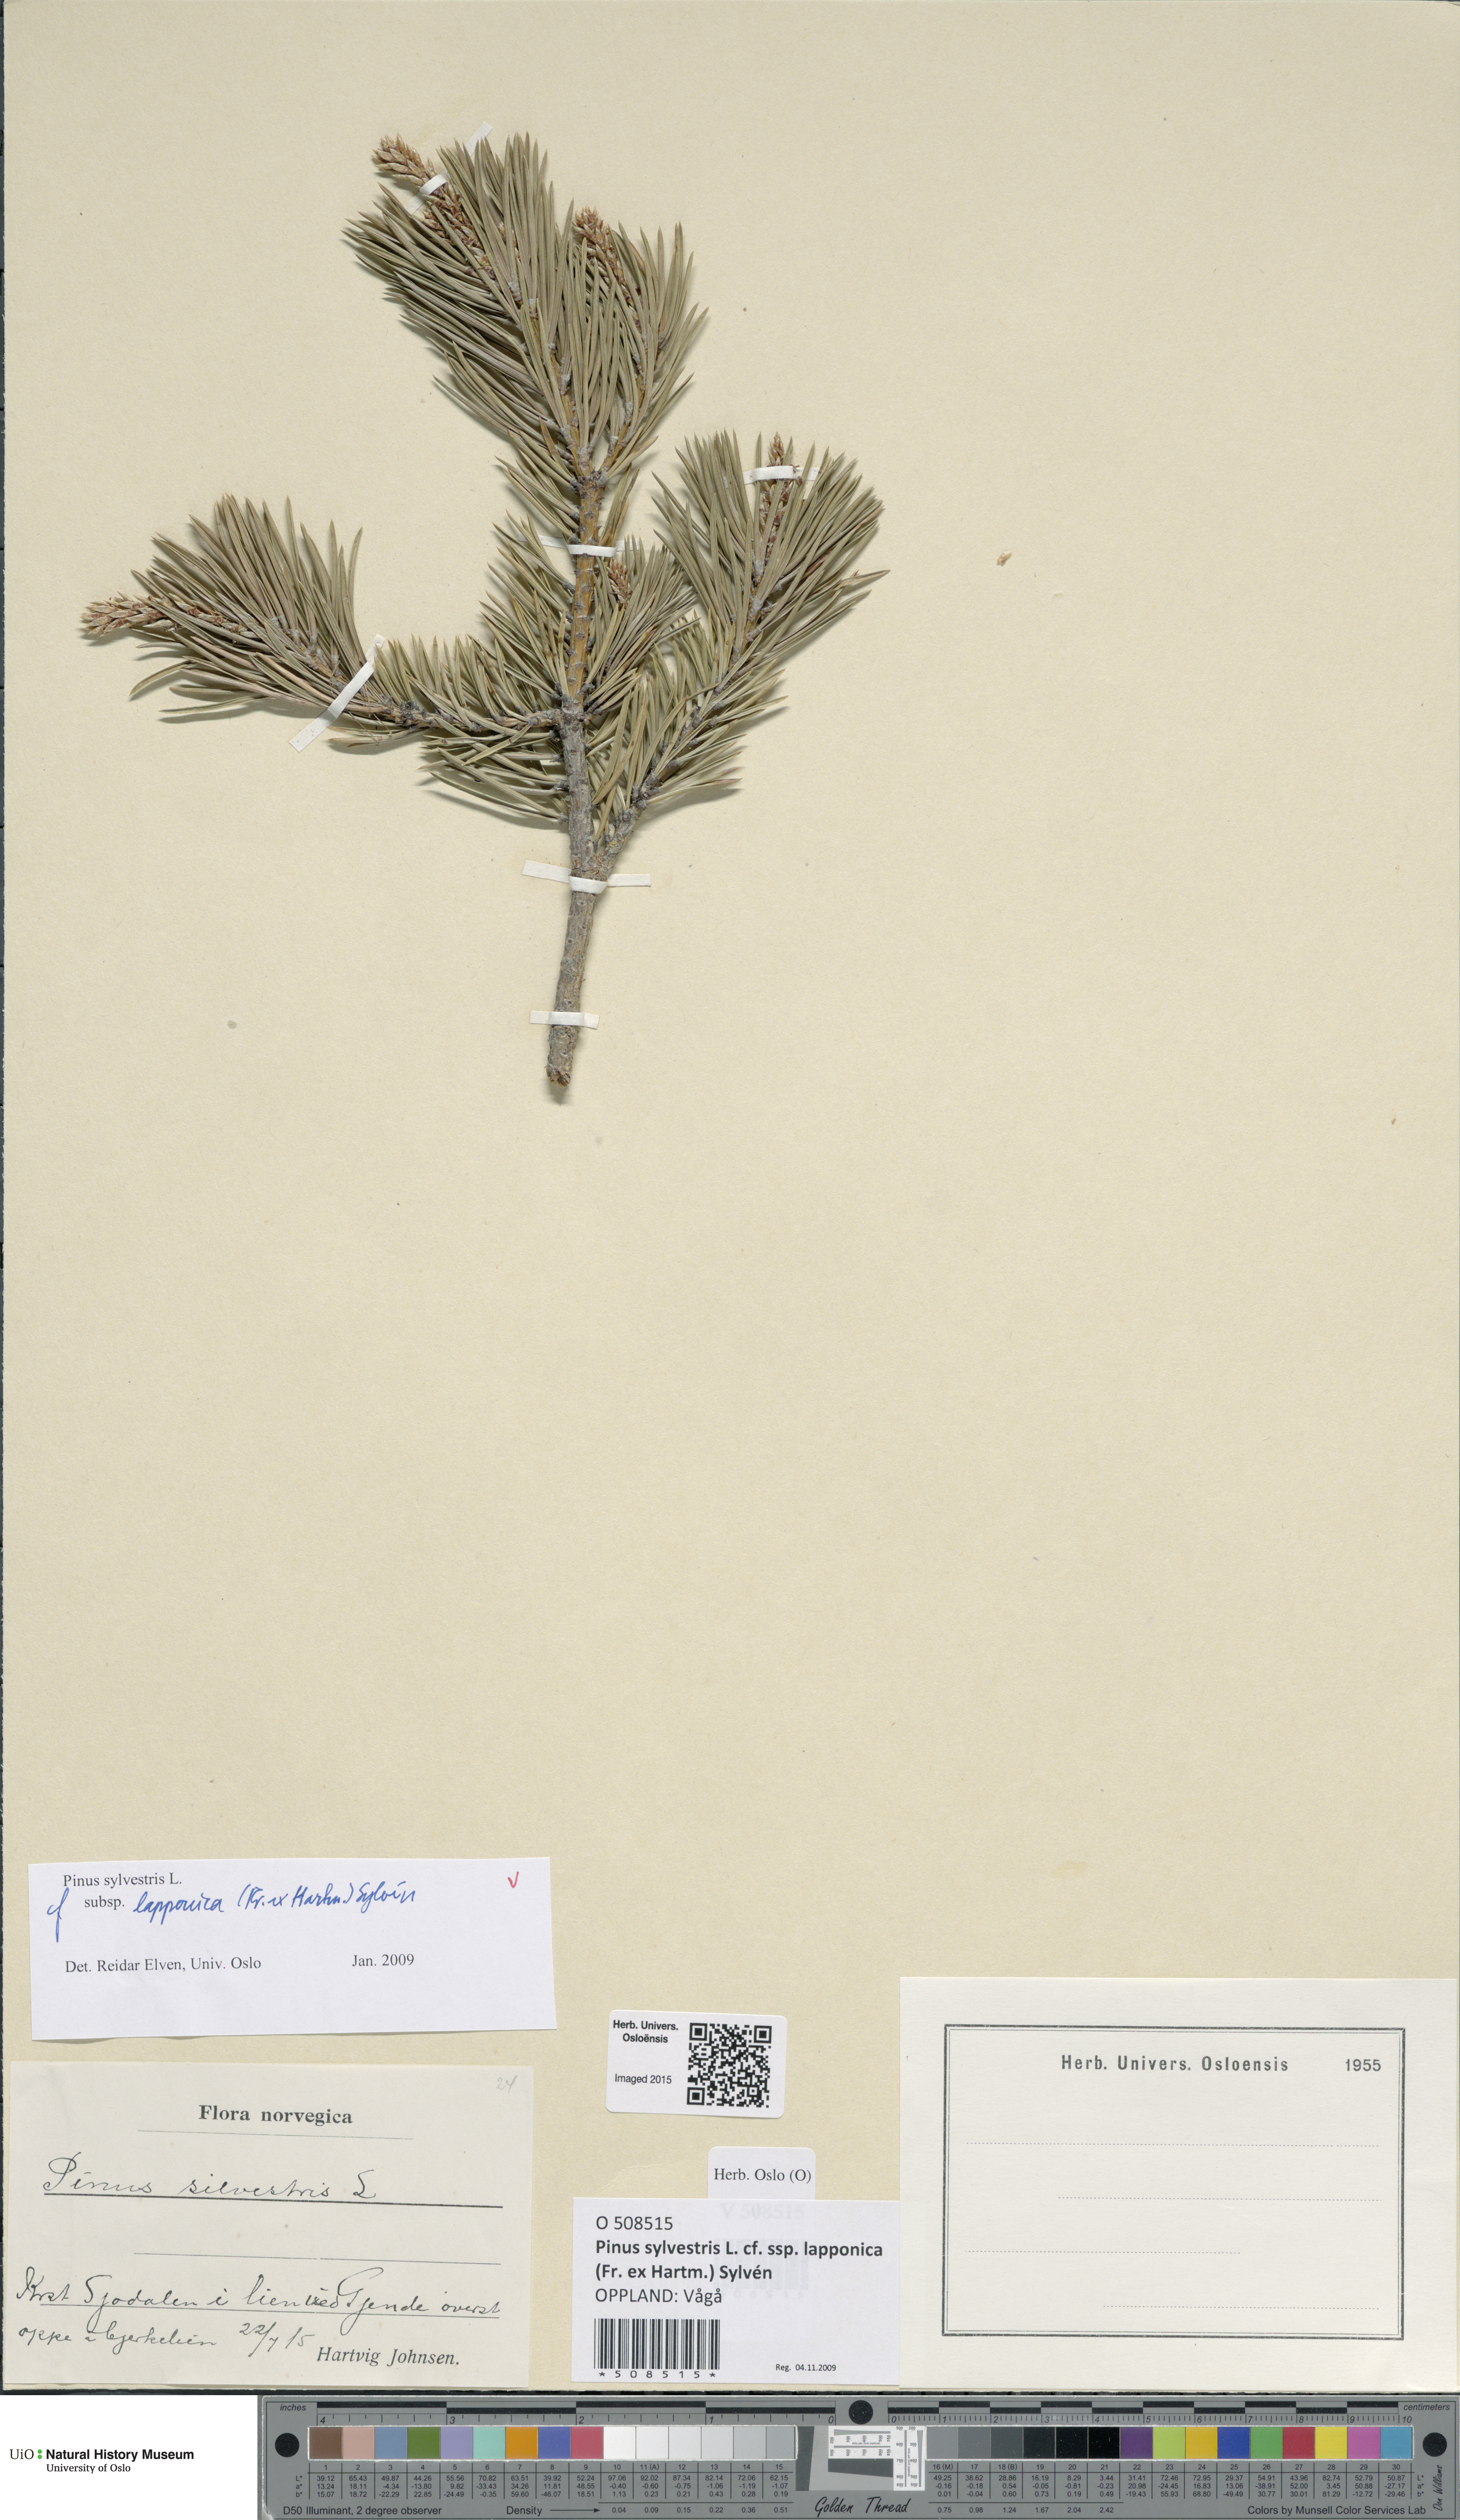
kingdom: Plantae
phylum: Tracheophyta
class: Pinopsida
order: Pinales
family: Pinaceae
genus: Pinus
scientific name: Pinus sylvestris
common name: Scots pine
